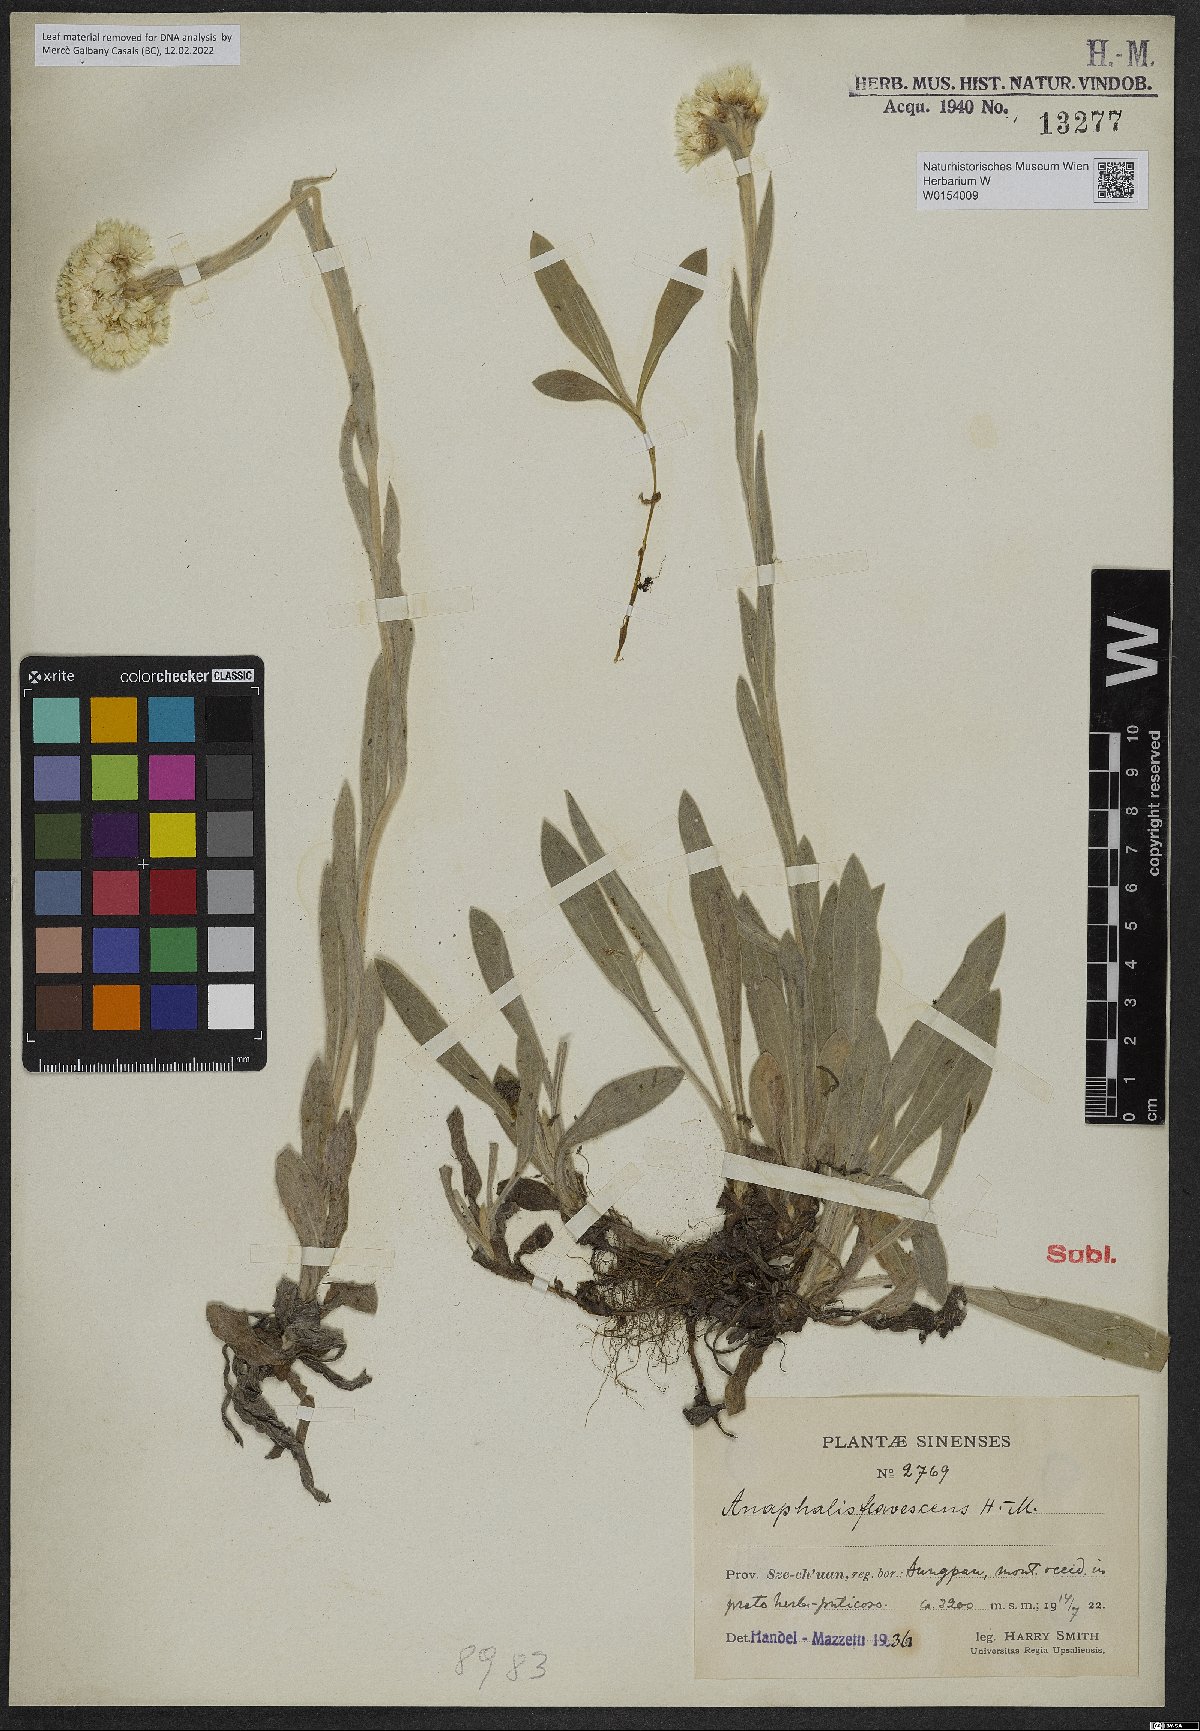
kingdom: Plantae
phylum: Tracheophyta
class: Magnoliopsida
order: Asterales
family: Asteraceae
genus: Anaphalis
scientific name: Anaphalis flavescens
